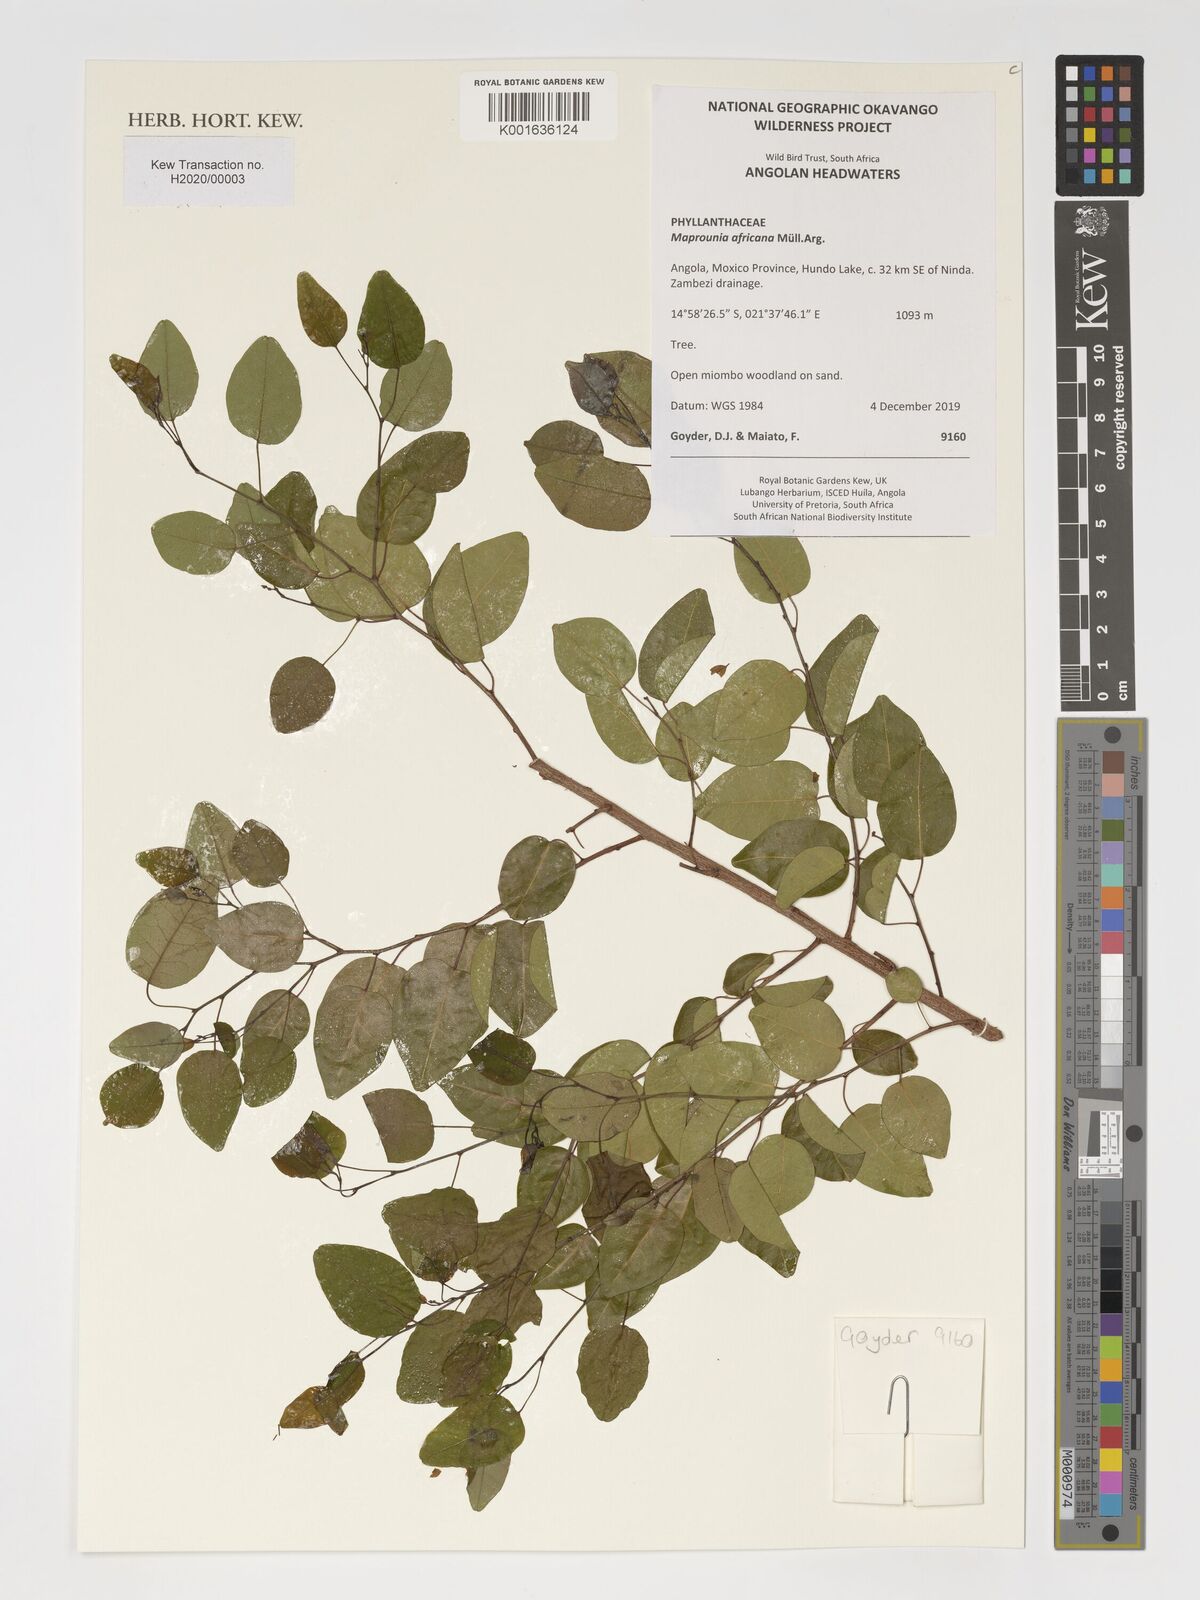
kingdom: Plantae
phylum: Tracheophyta
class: Magnoliopsida
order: Malpighiales
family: Euphorbiaceae
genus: Maprounea
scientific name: Maprounea africana
